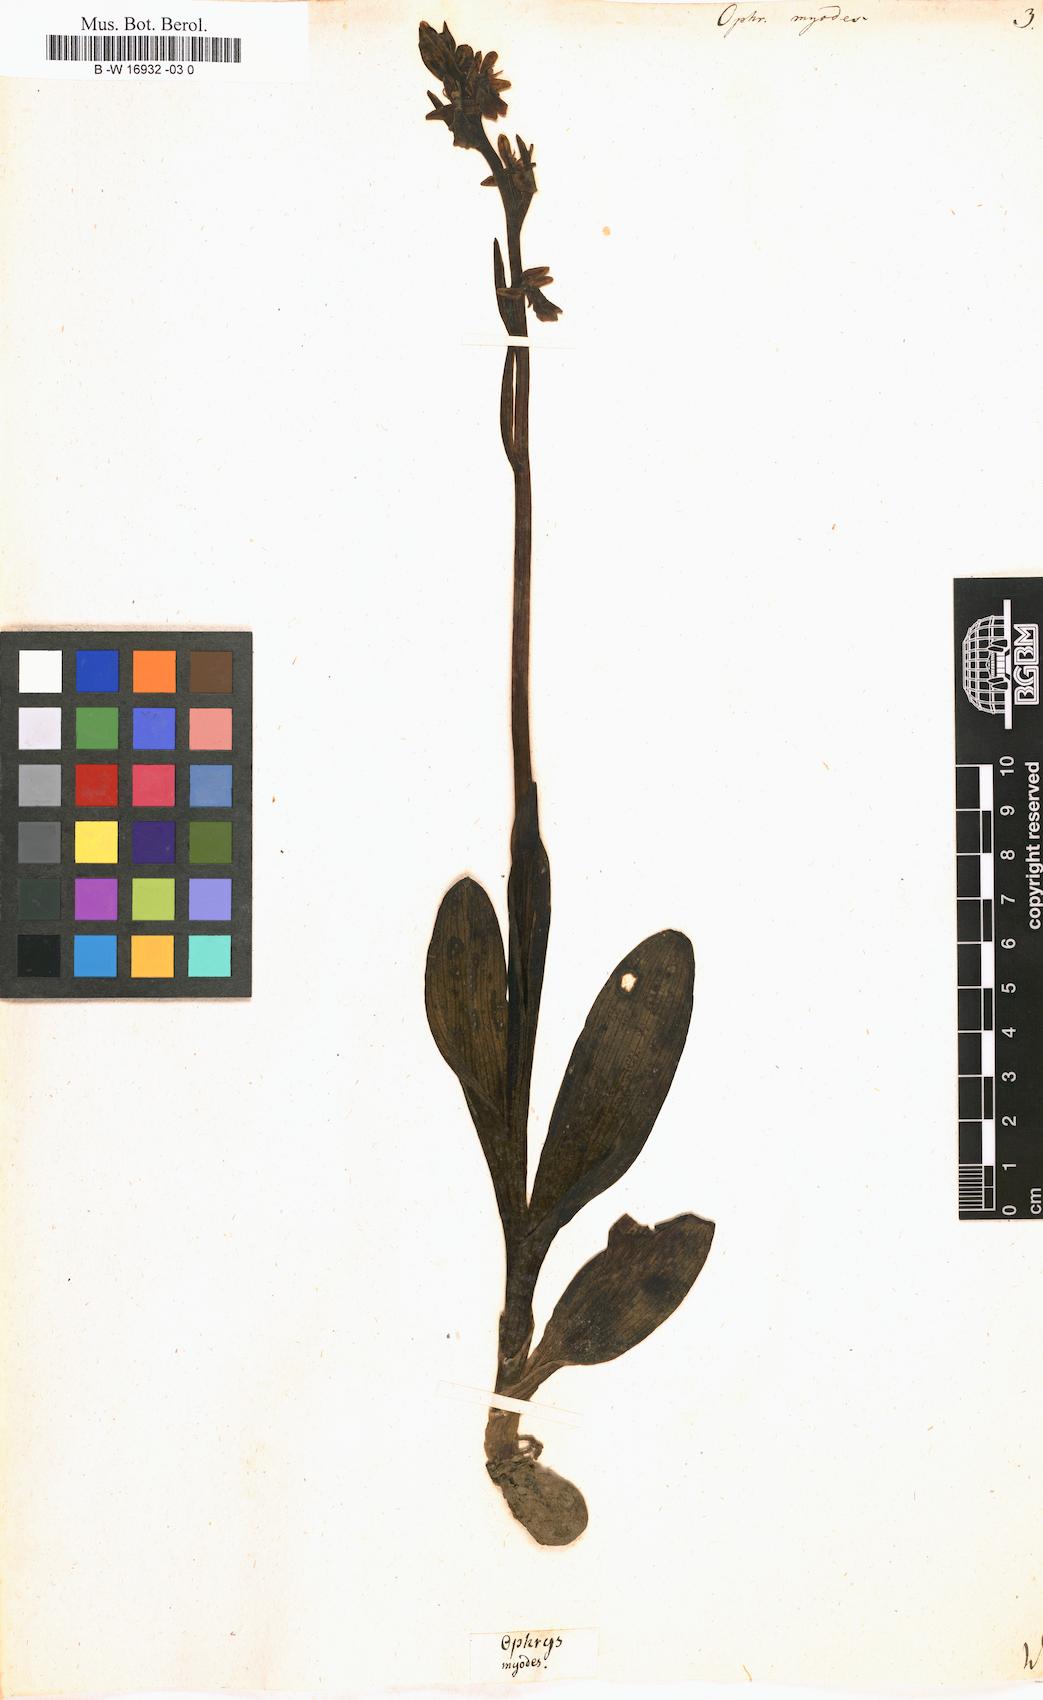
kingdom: Plantae
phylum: Tracheophyta
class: Liliopsida
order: Asparagales
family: Orchidaceae
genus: Ophrys
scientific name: Ophrys
